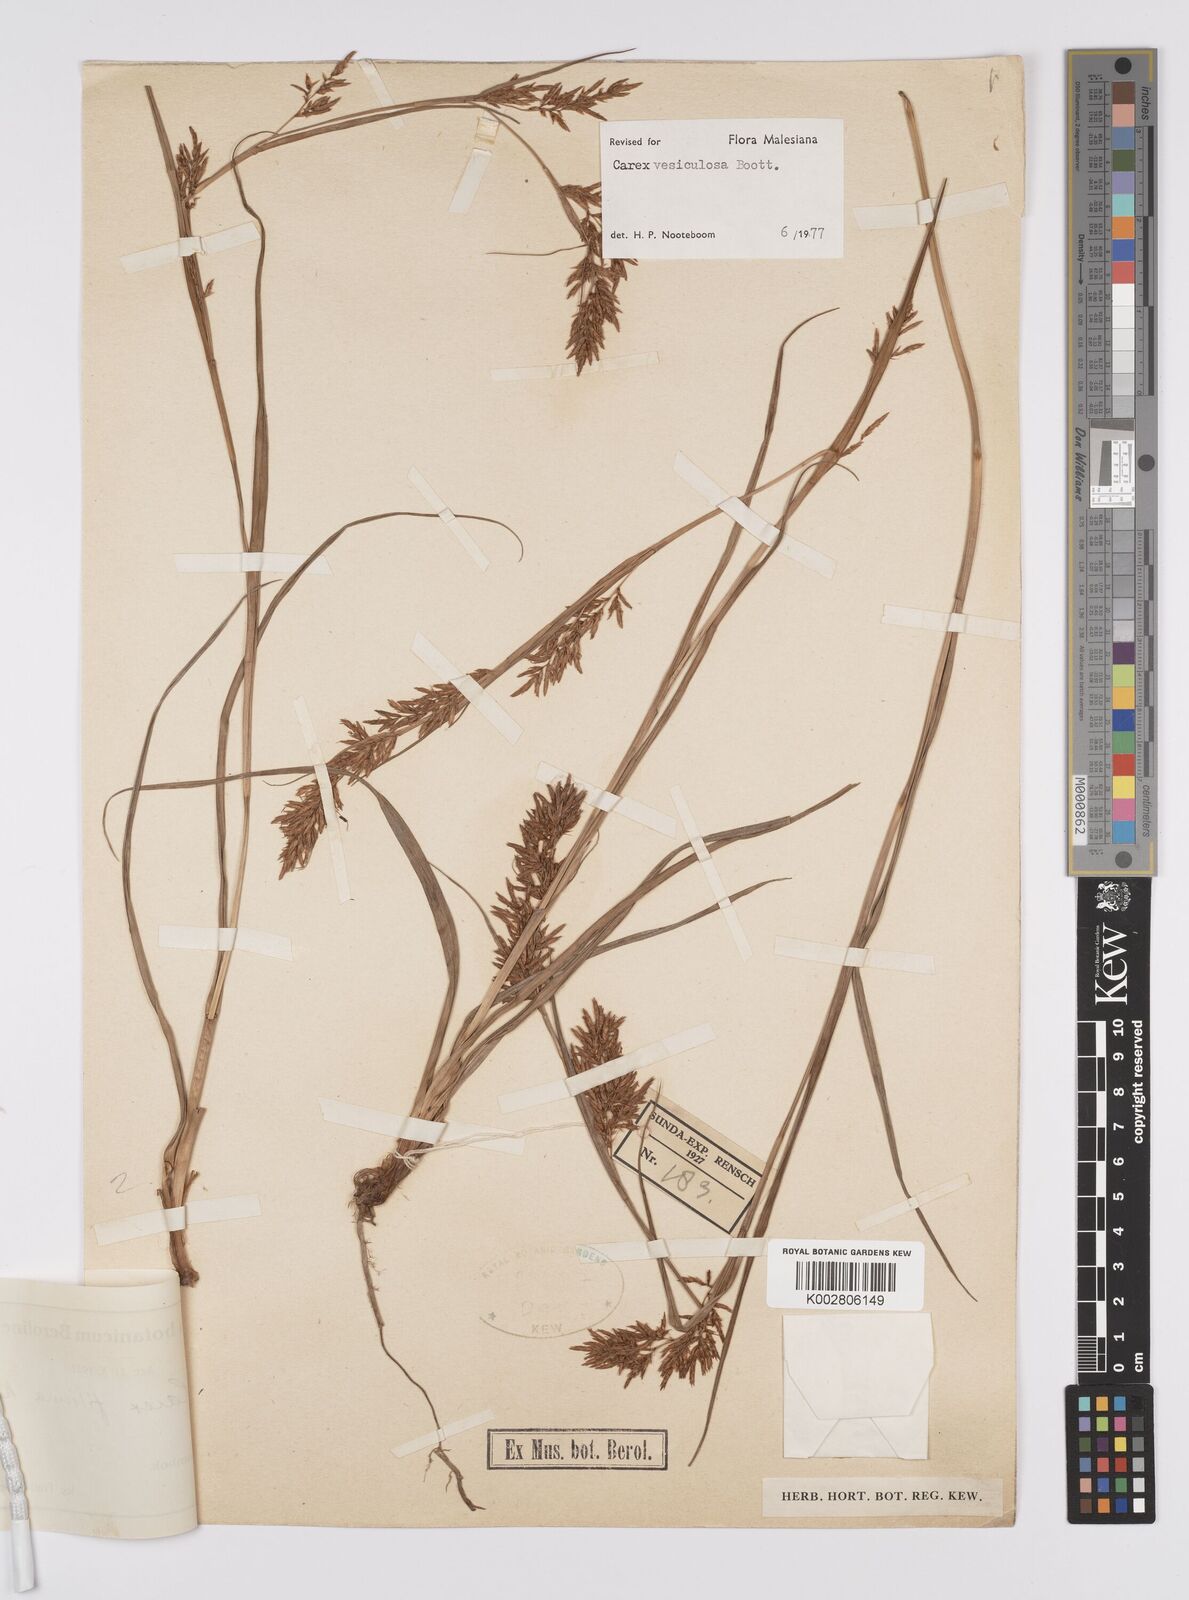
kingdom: Plantae
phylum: Tracheophyta
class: Liliopsida
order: Poales
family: Cyperaceae
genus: Carex
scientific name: Carex vesiculosa
